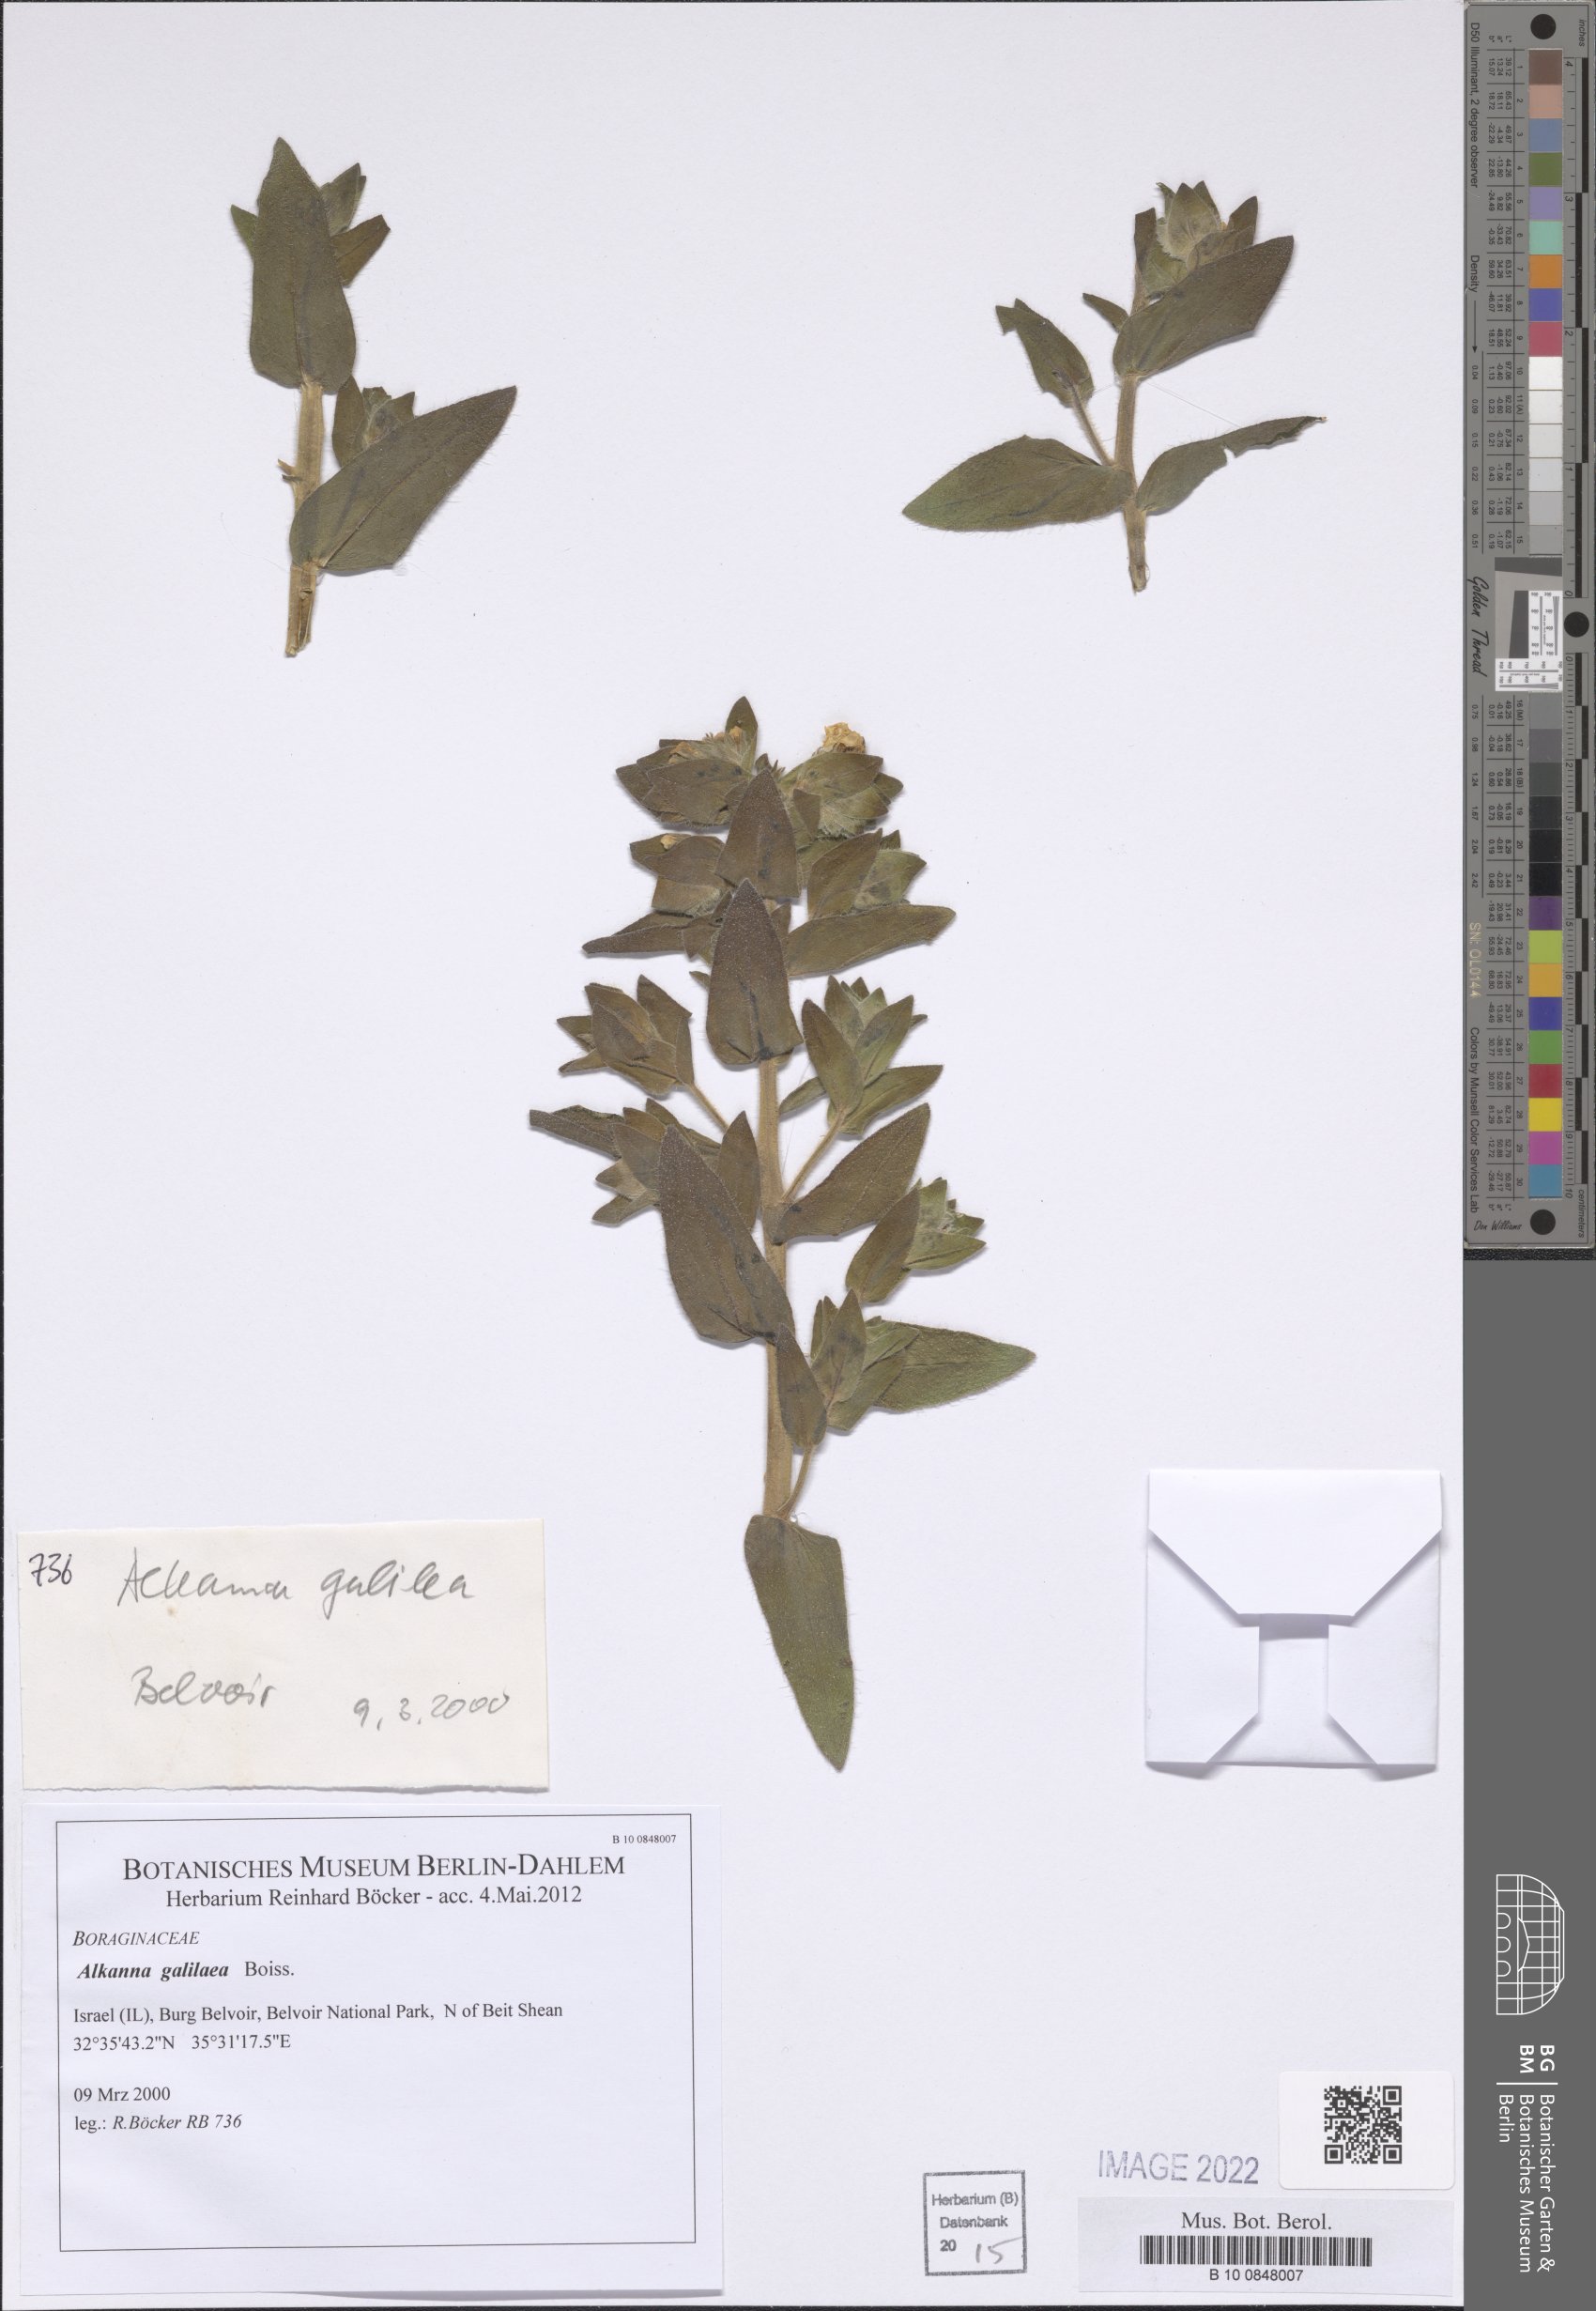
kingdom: Plantae
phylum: Tracheophyta
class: Magnoliopsida
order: Boraginales
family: Boraginaceae
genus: Alkanna
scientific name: Alkanna galilaea
